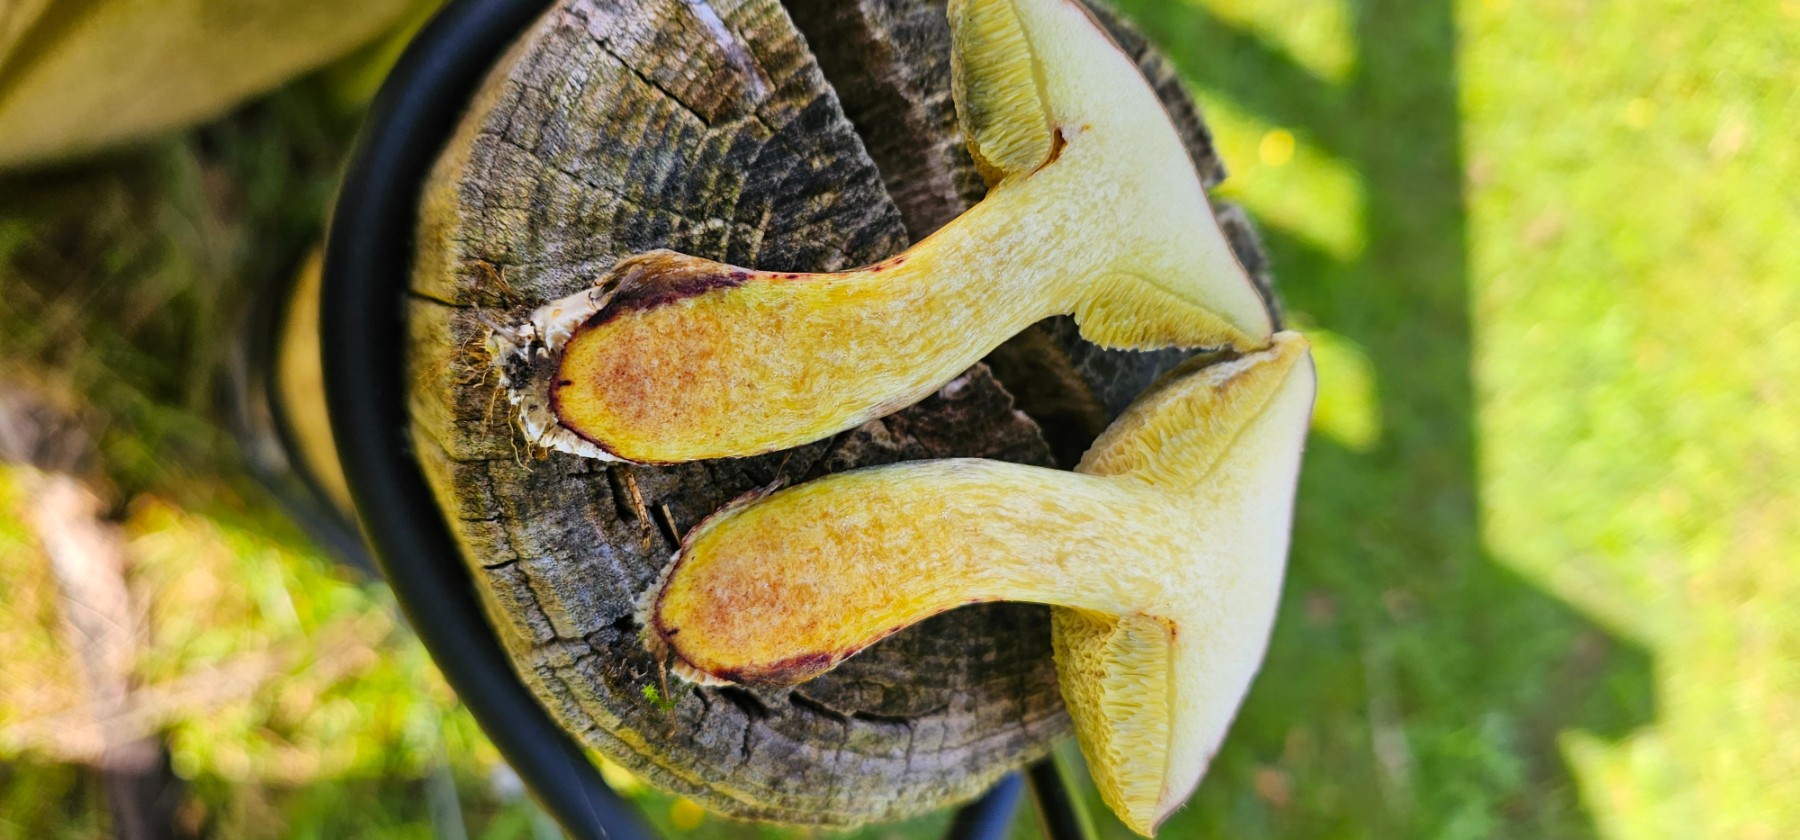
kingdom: Fungi
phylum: Basidiomycota
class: Agaricomycetes
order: Boletales
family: Boletaceae
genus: Xerocomellus
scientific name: Xerocomellus cisalpinus
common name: finsprukken rørhat
